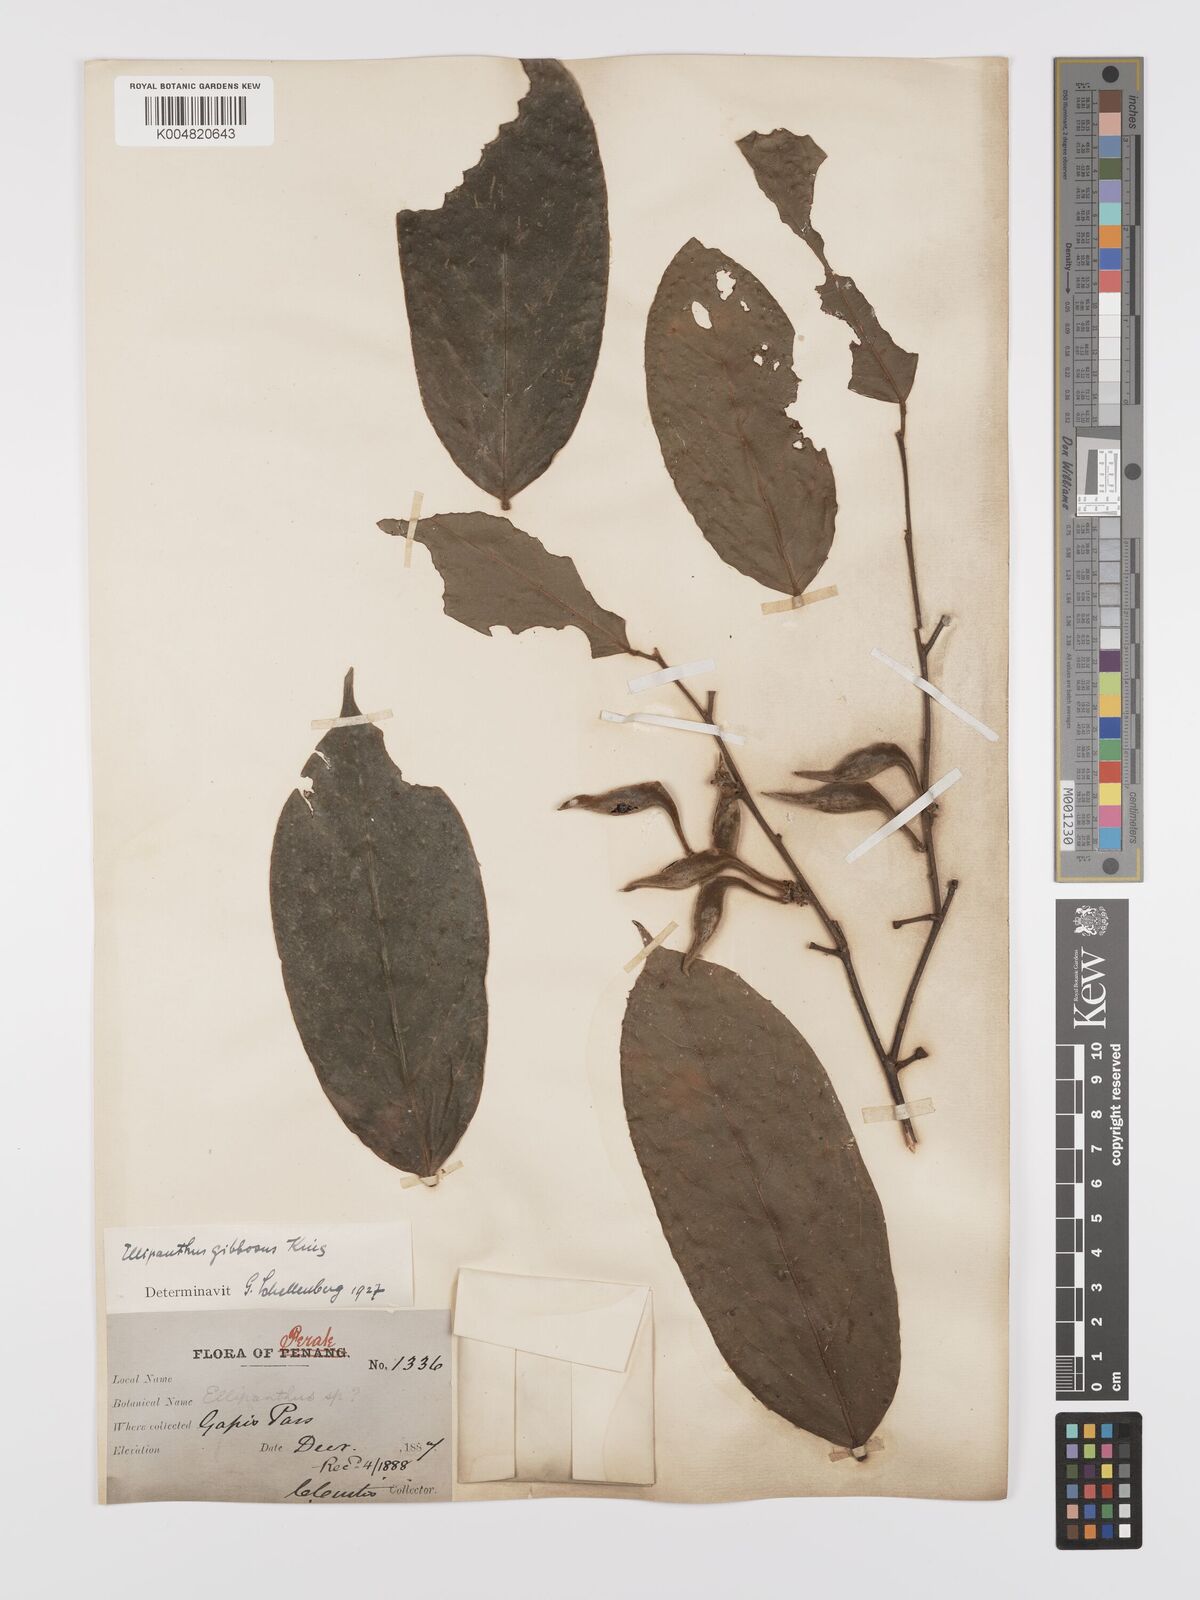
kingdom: Plantae
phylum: Tracheophyta
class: Magnoliopsida
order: Oxalidales
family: Connaraceae
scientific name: Connaraceae
